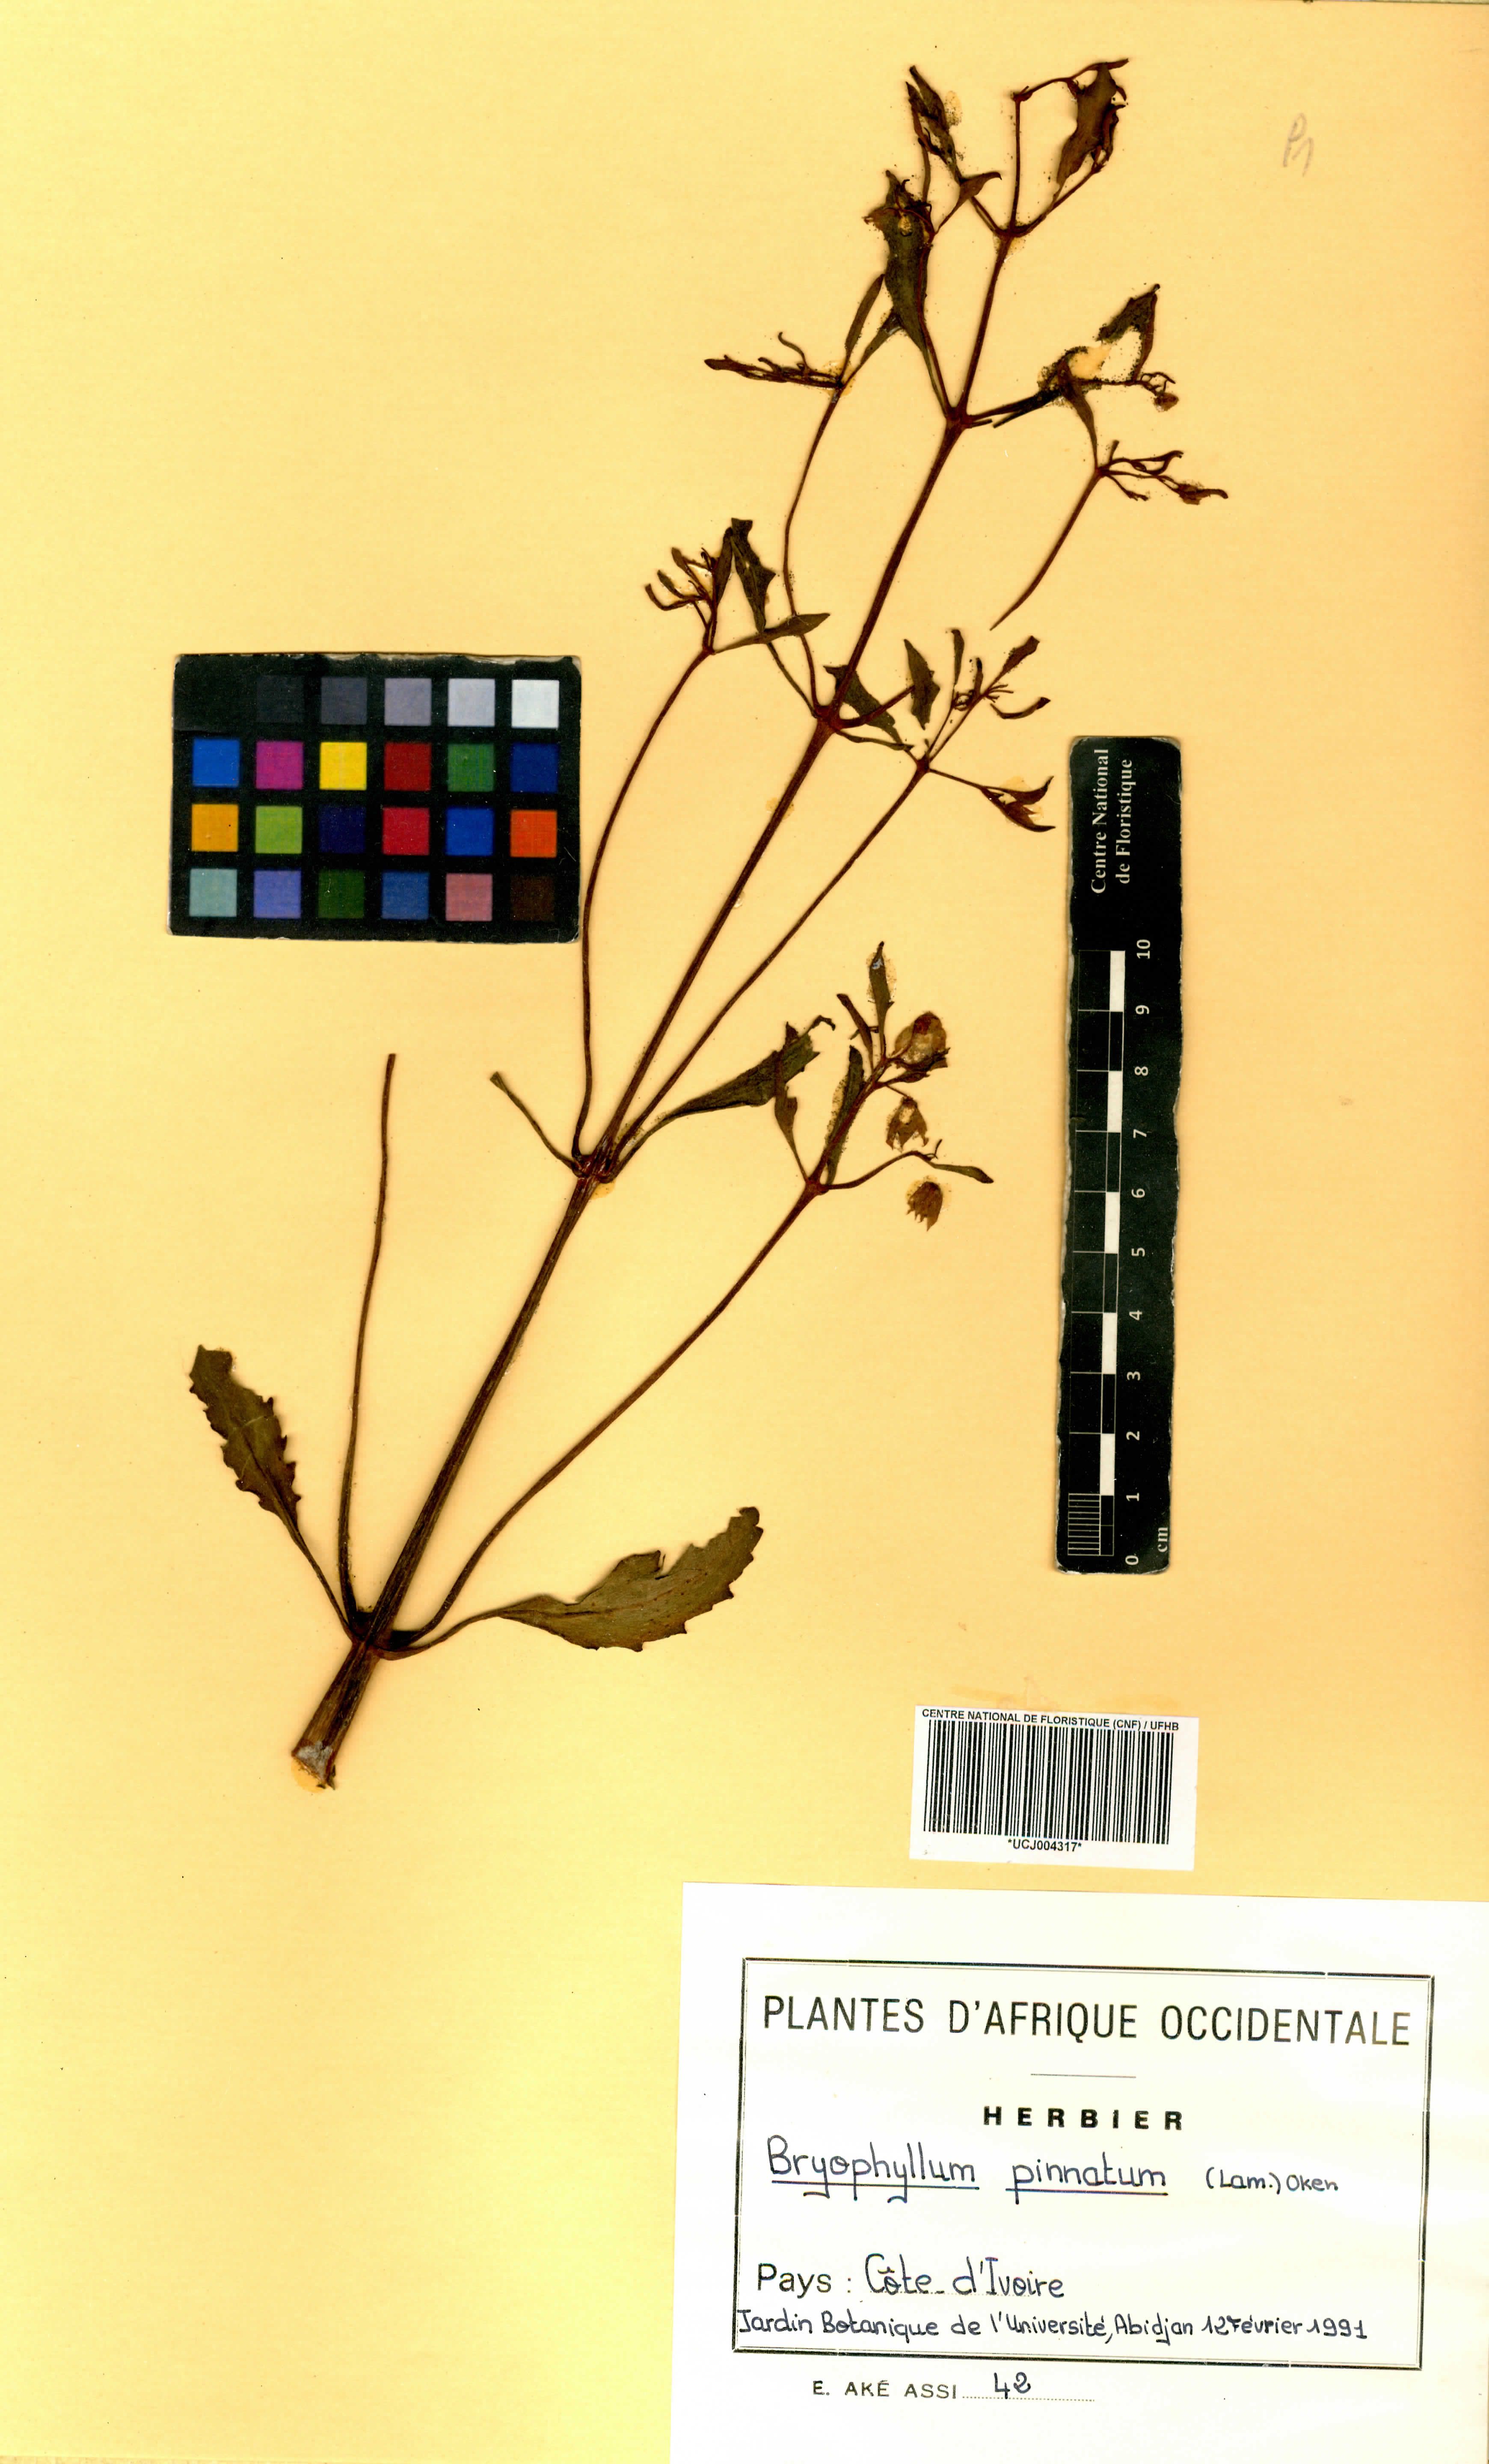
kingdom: Plantae
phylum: Tracheophyta
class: Magnoliopsida
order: Saxifragales
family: Crassulaceae
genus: Kalanchoe
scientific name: Kalanchoe pinnata
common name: Cathedral bells
